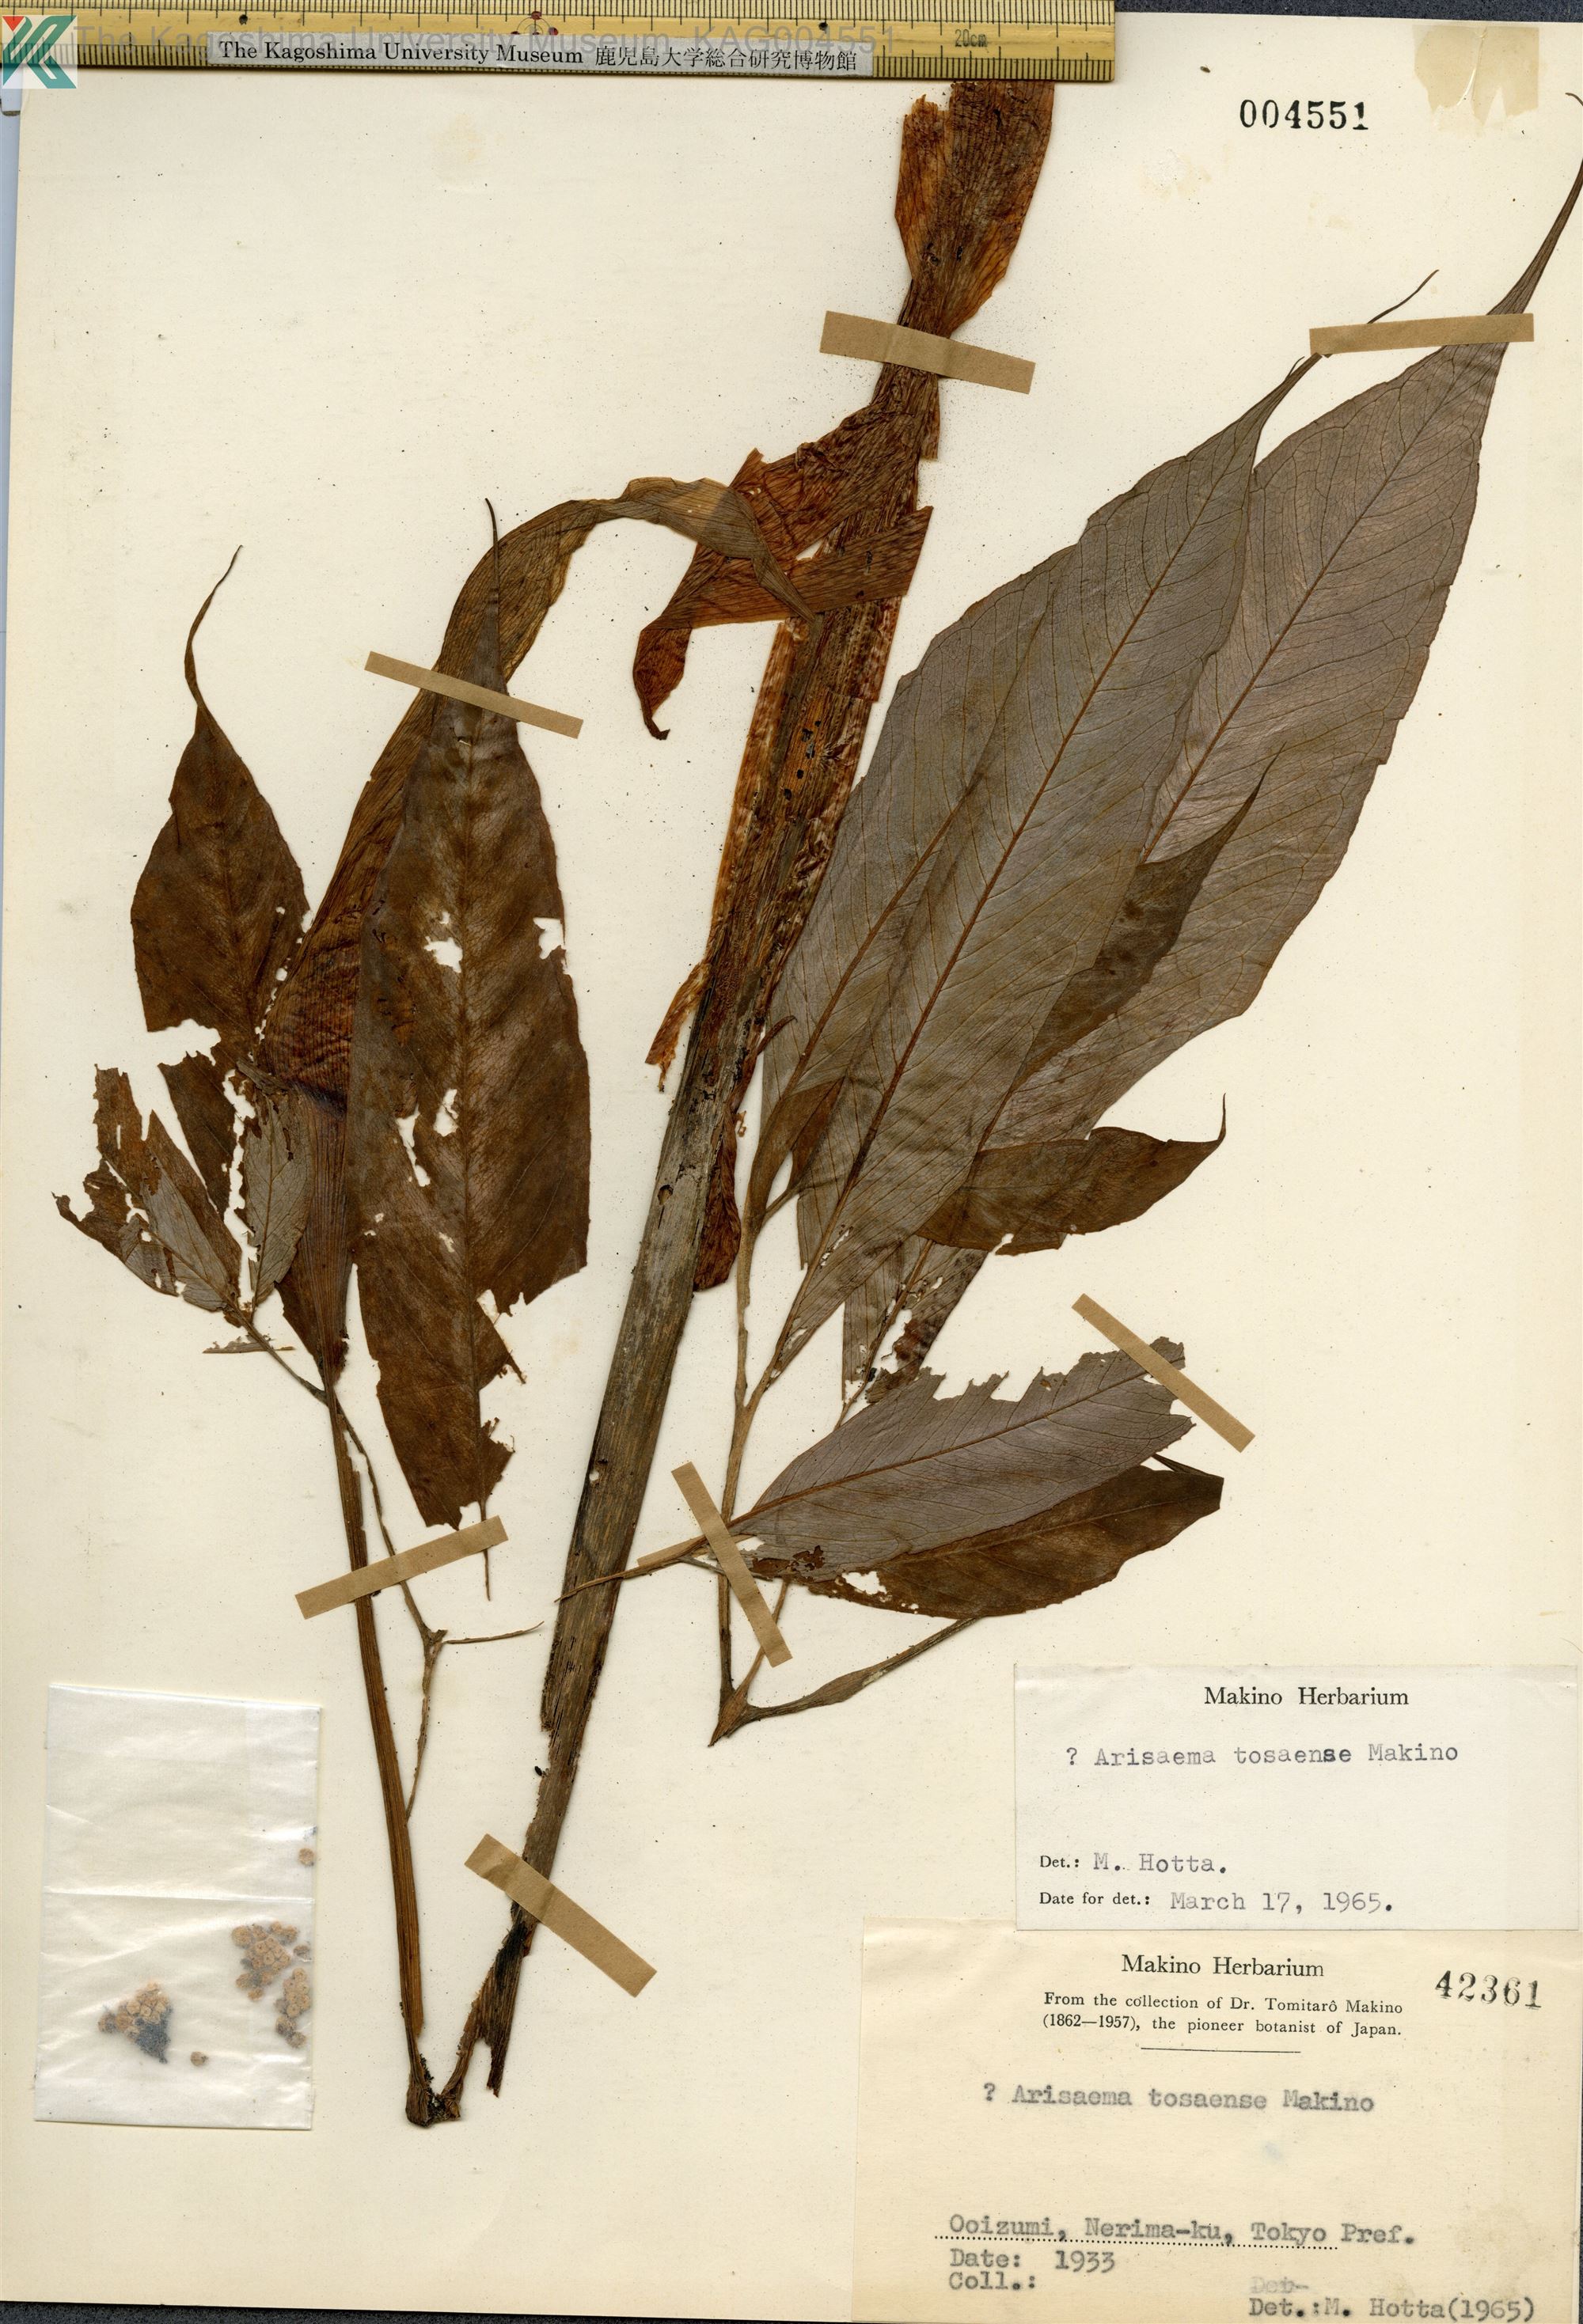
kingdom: Plantae
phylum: Tracheophyta
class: Liliopsida
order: Alismatales
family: Araceae
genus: Arisaema
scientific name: Arisaema tosaense
